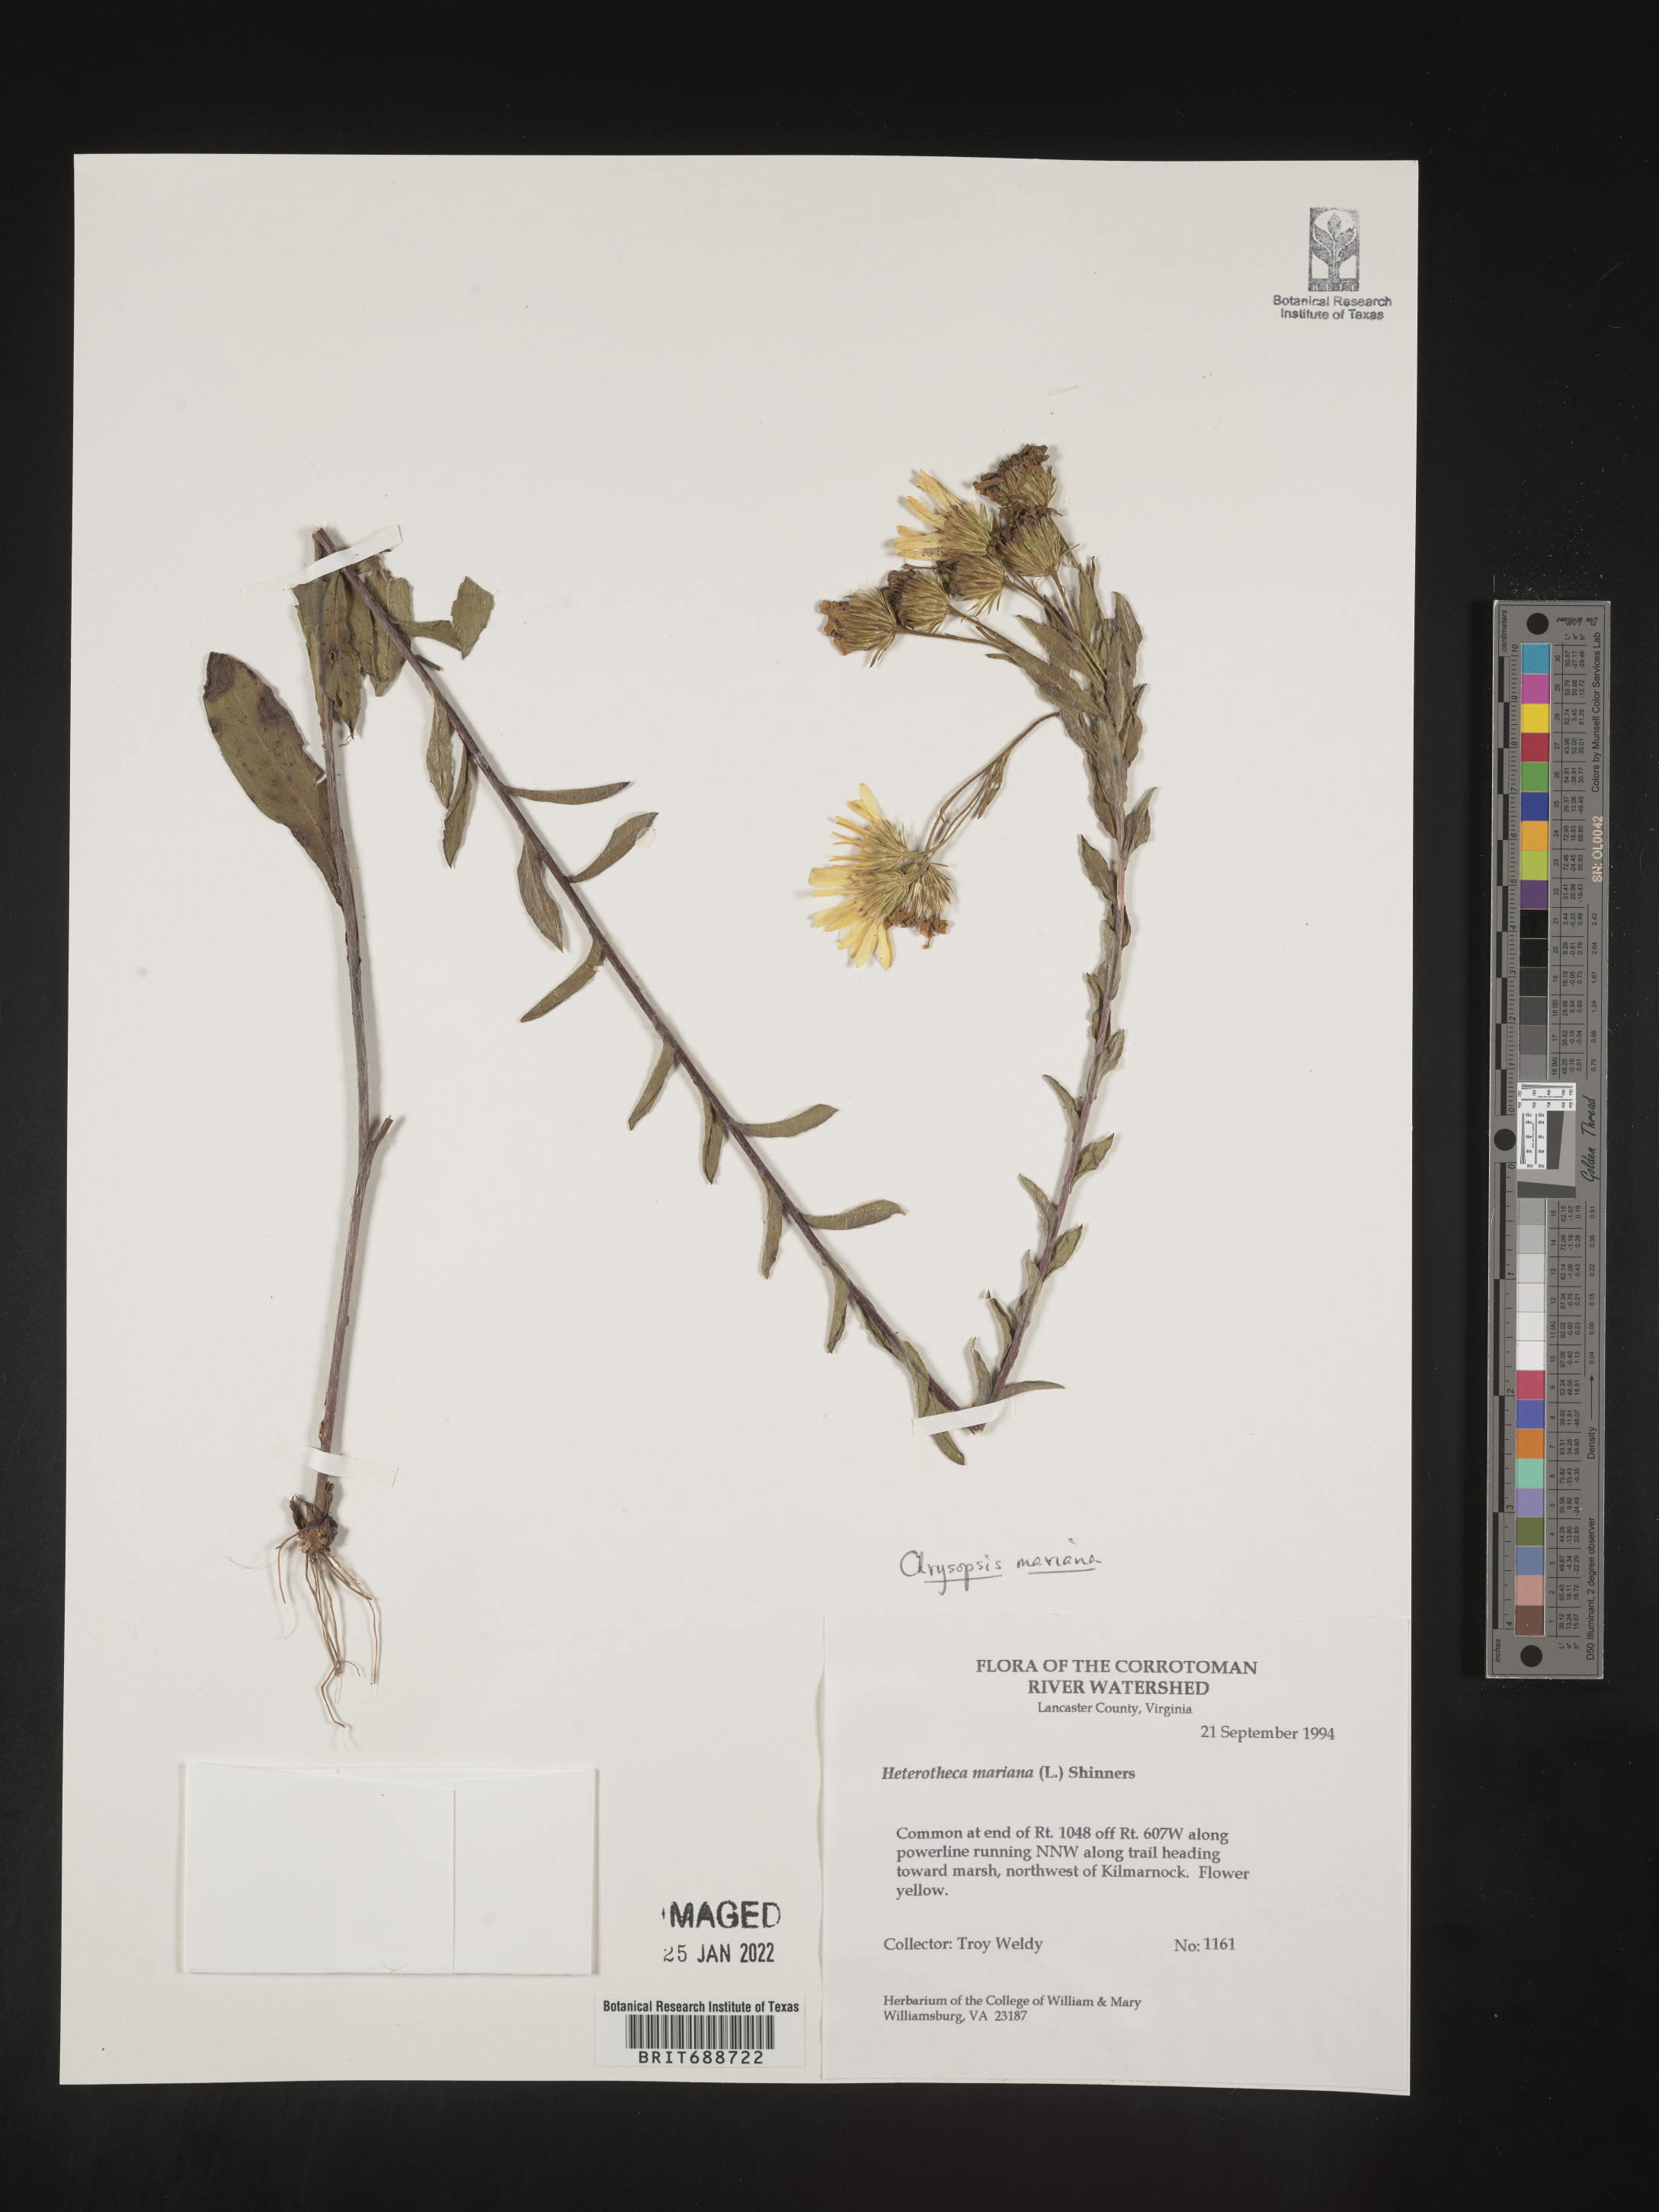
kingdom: Plantae
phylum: Tracheophyta
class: Magnoliopsida
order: Asterales
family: Asteraceae
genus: Chrysopsis
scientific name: Chrysopsis mariana
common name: Maryland golden-aster
